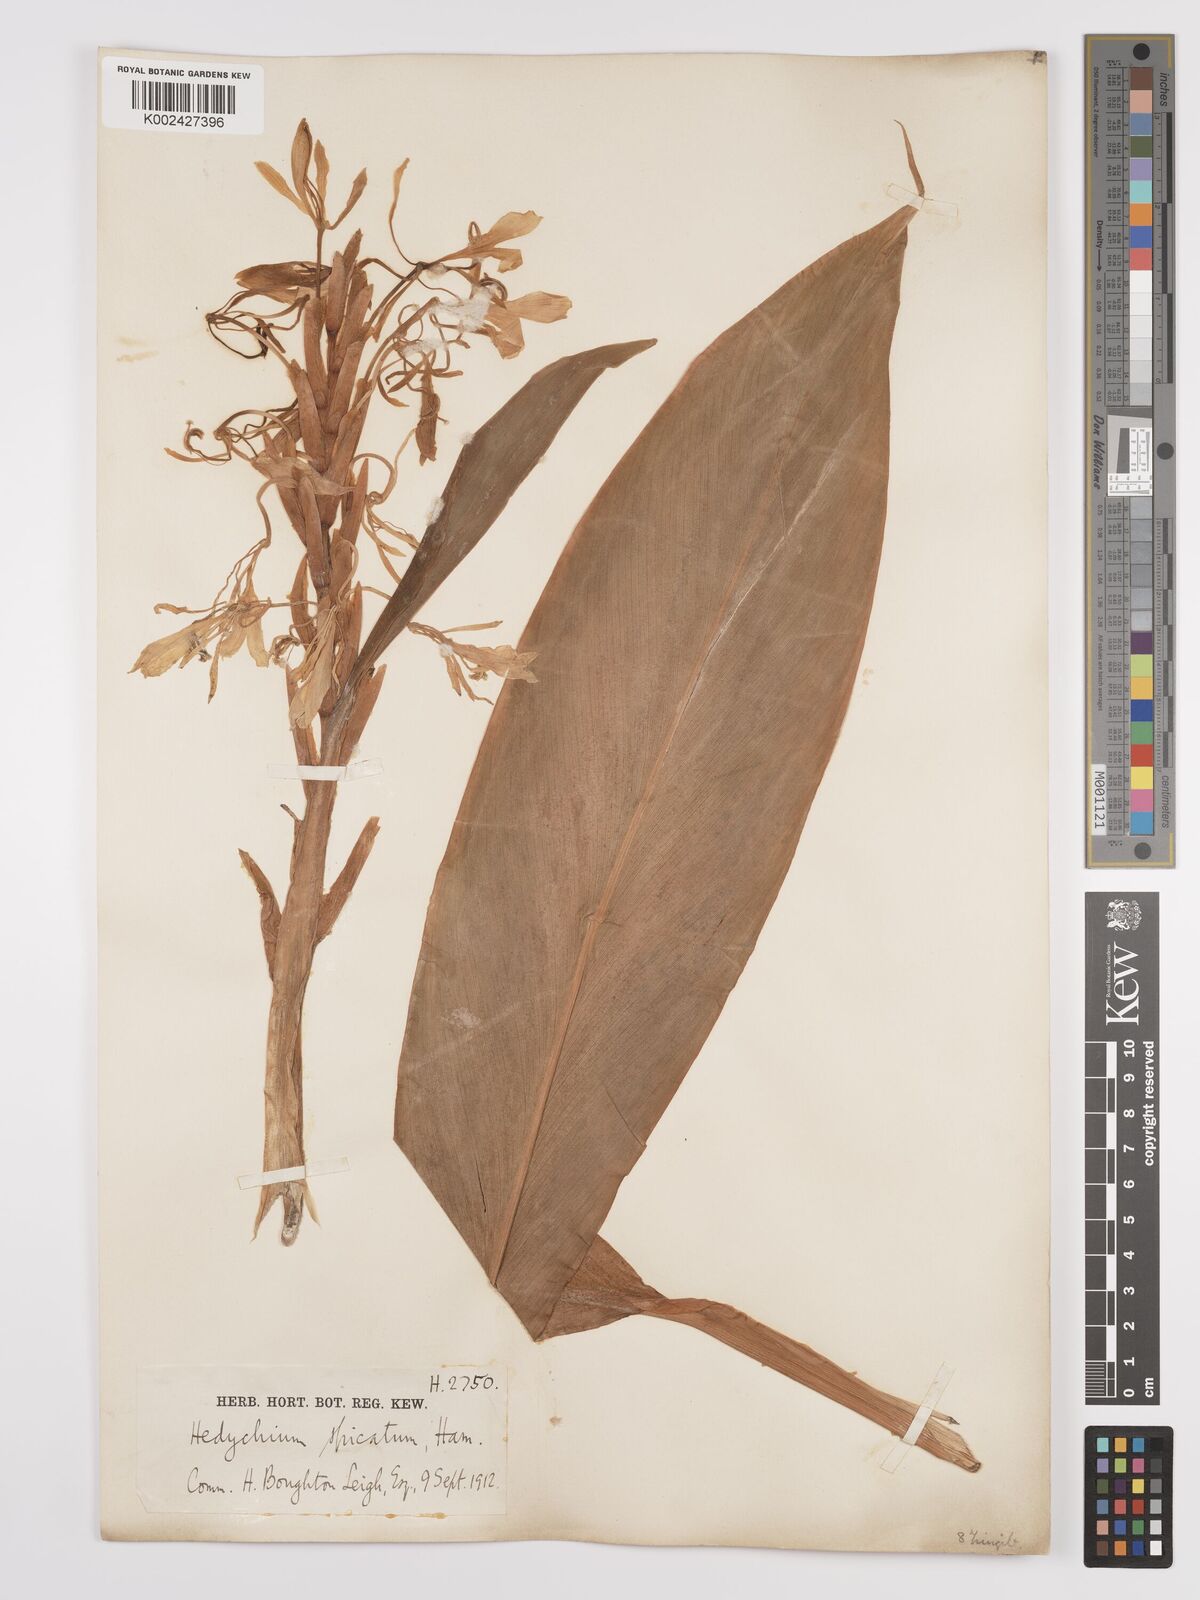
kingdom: Plantae
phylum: Tracheophyta
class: Liliopsida
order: Zingiberales
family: Zingiberaceae
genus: Hedychium
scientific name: Hedychium
